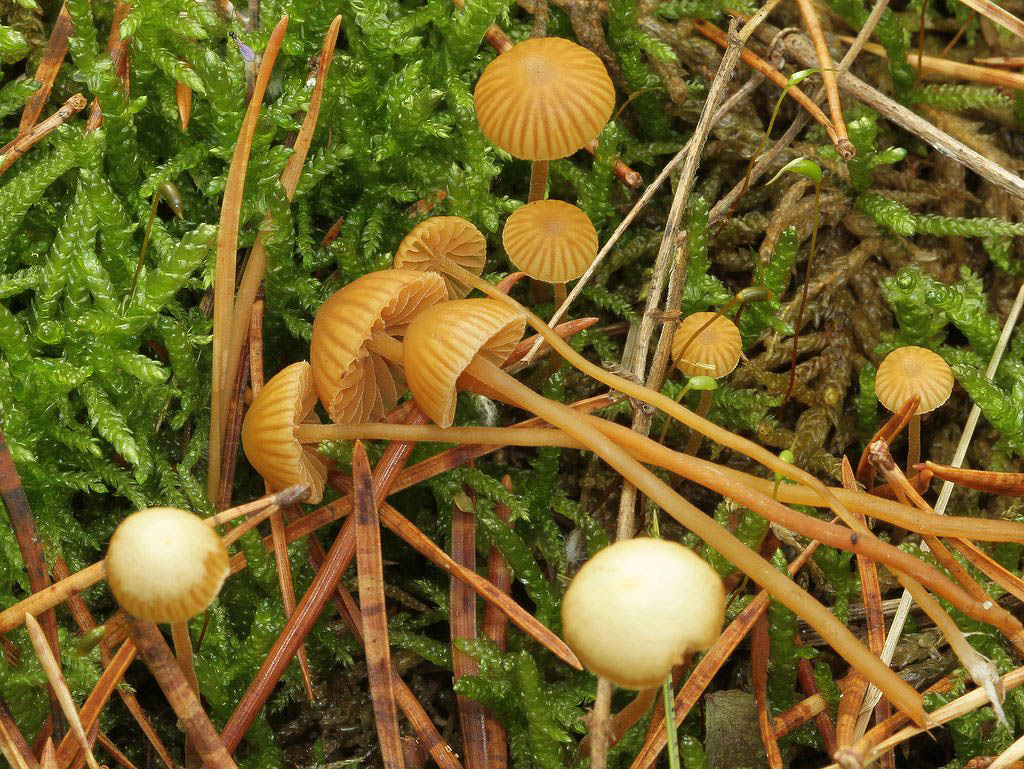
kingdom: Fungi
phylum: Basidiomycota
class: Agaricomycetes
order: Agaricales
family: Hymenogastraceae
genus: Galerina
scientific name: Galerina vittiformis
